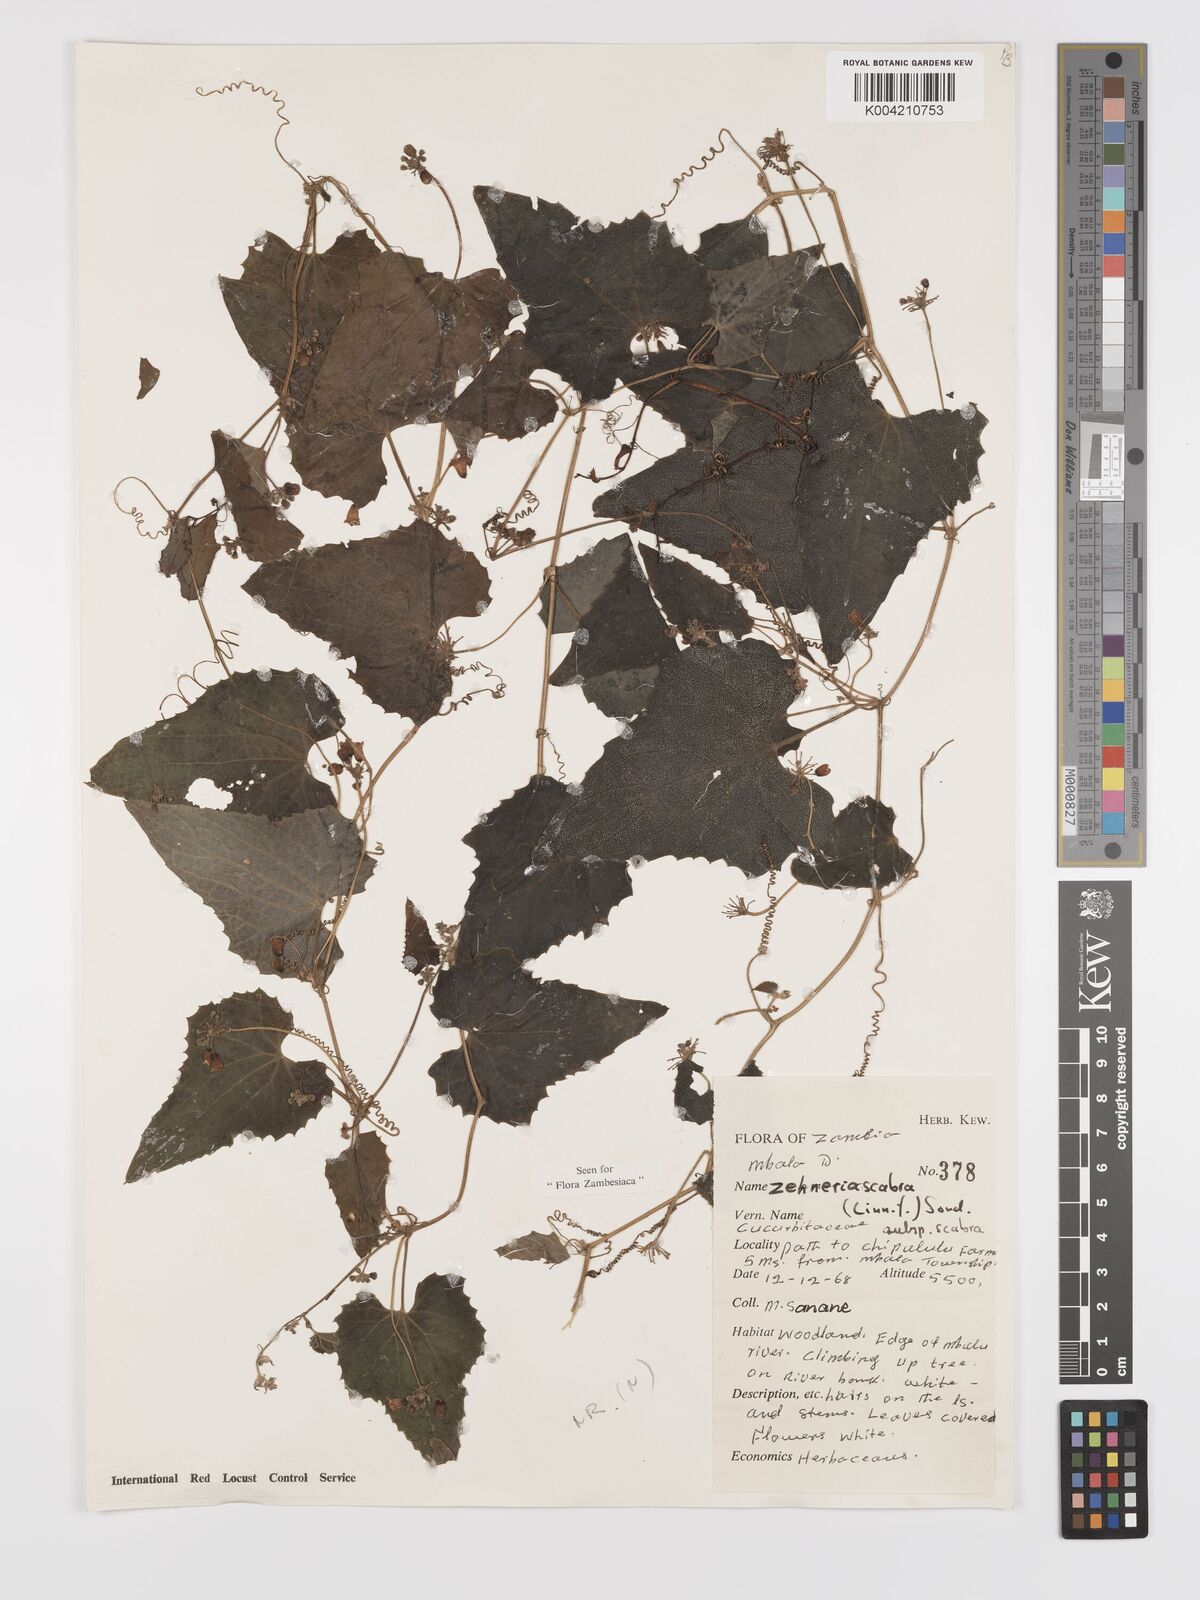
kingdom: Plantae
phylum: Tracheophyta
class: Magnoliopsida
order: Cucurbitales
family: Cucurbitaceae
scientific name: Cucurbitaceae
